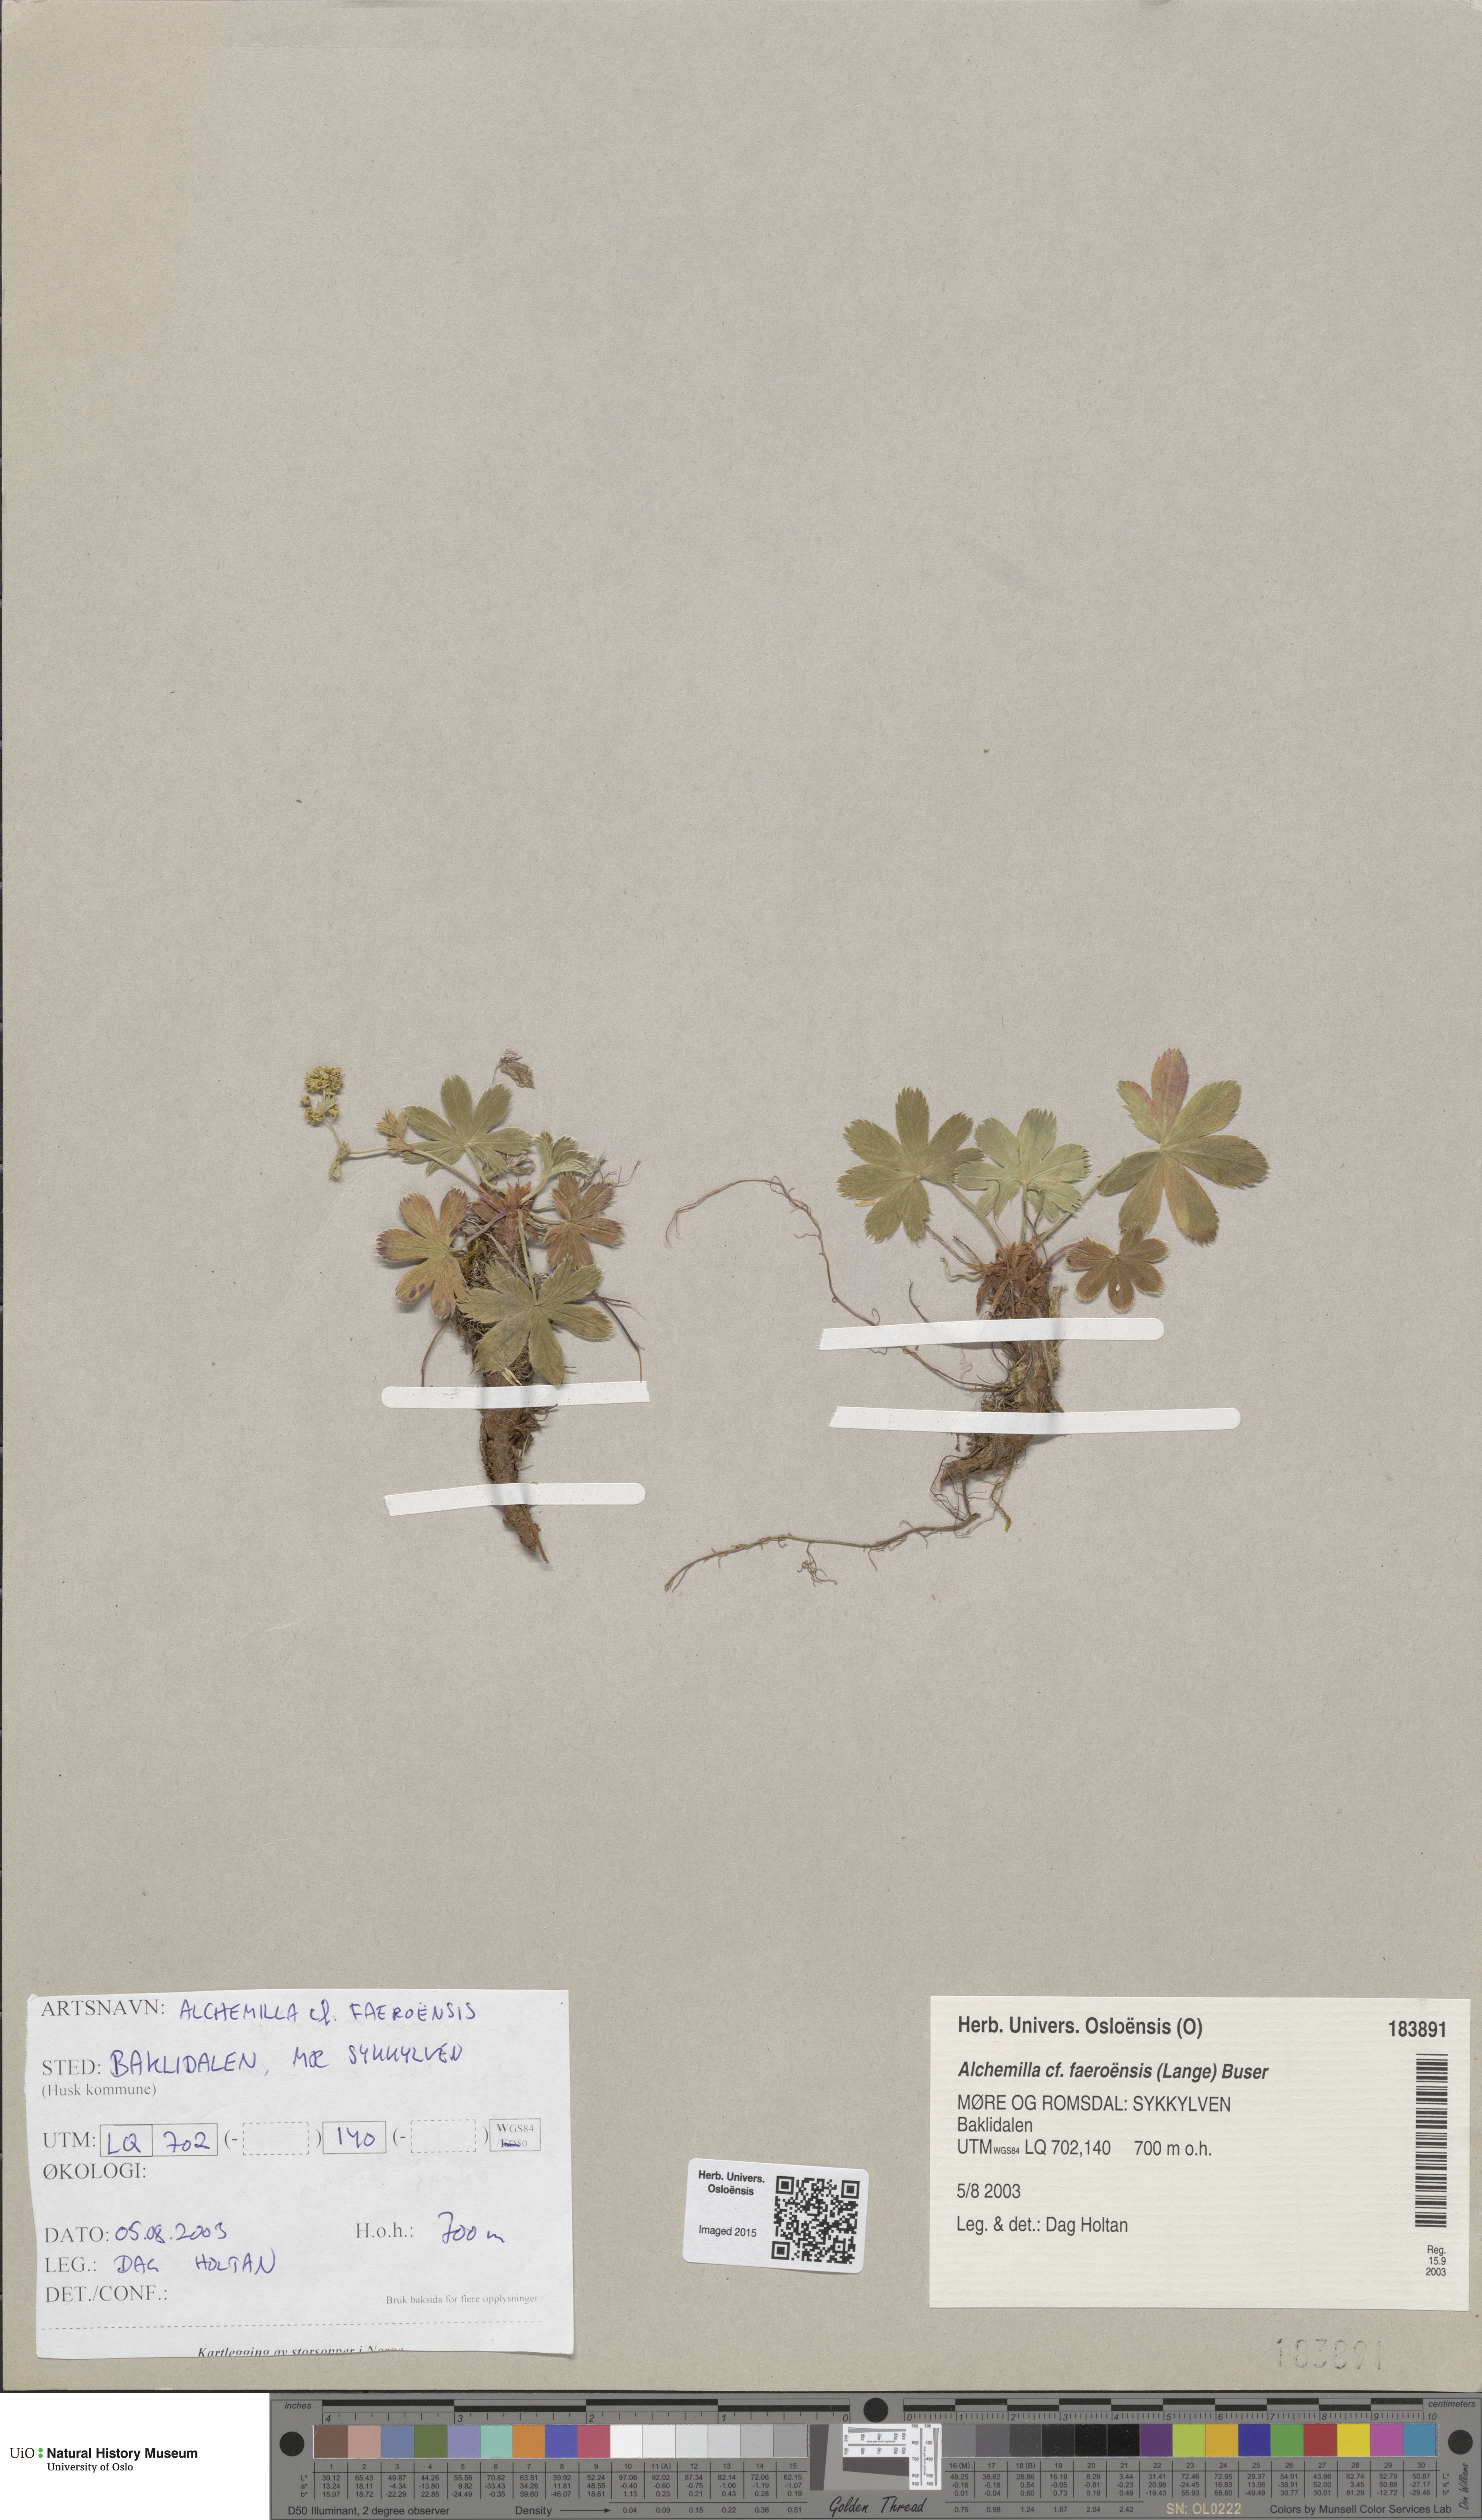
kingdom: Plantae
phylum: Tracheophyta
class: Magnoliopsida
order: Rosales
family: Rosaceae
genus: Alchemilla
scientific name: Alchemilla semidivisa
